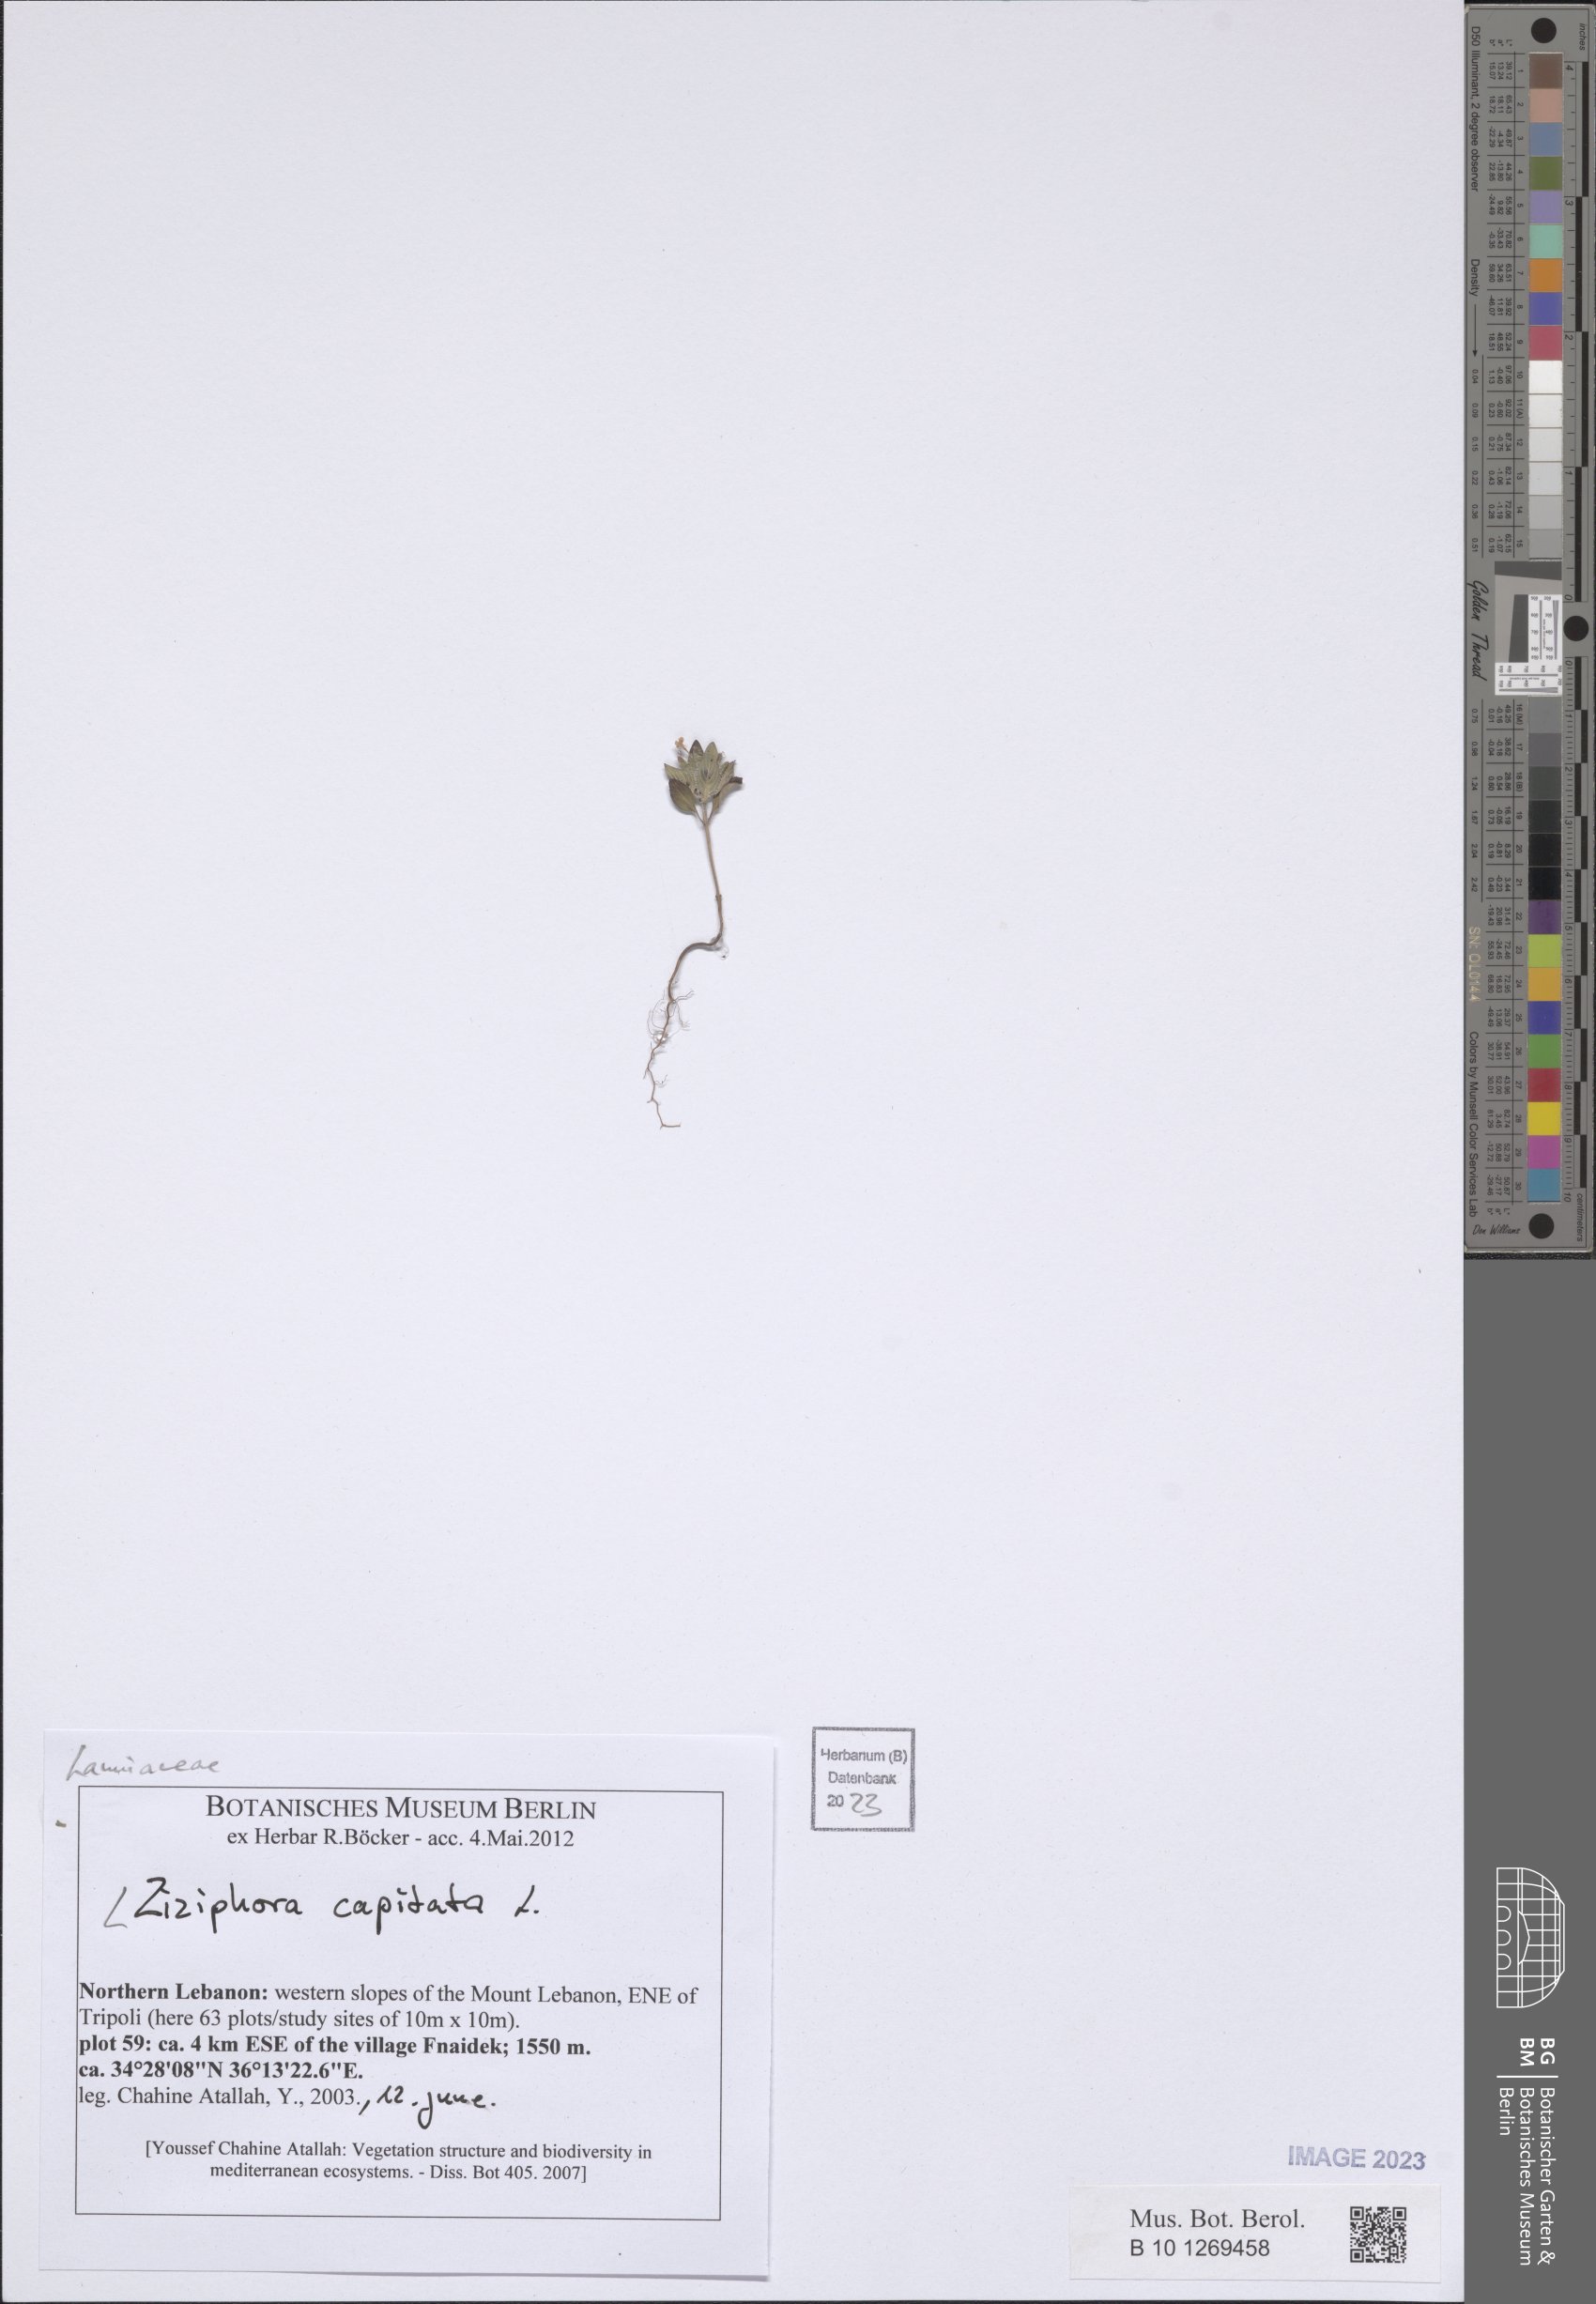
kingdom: Plantae
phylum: Tracheophyta
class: Magnoliopsida
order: Lamiales
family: Lamiaceae
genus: Ziziphora
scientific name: Ziziphora capitata
